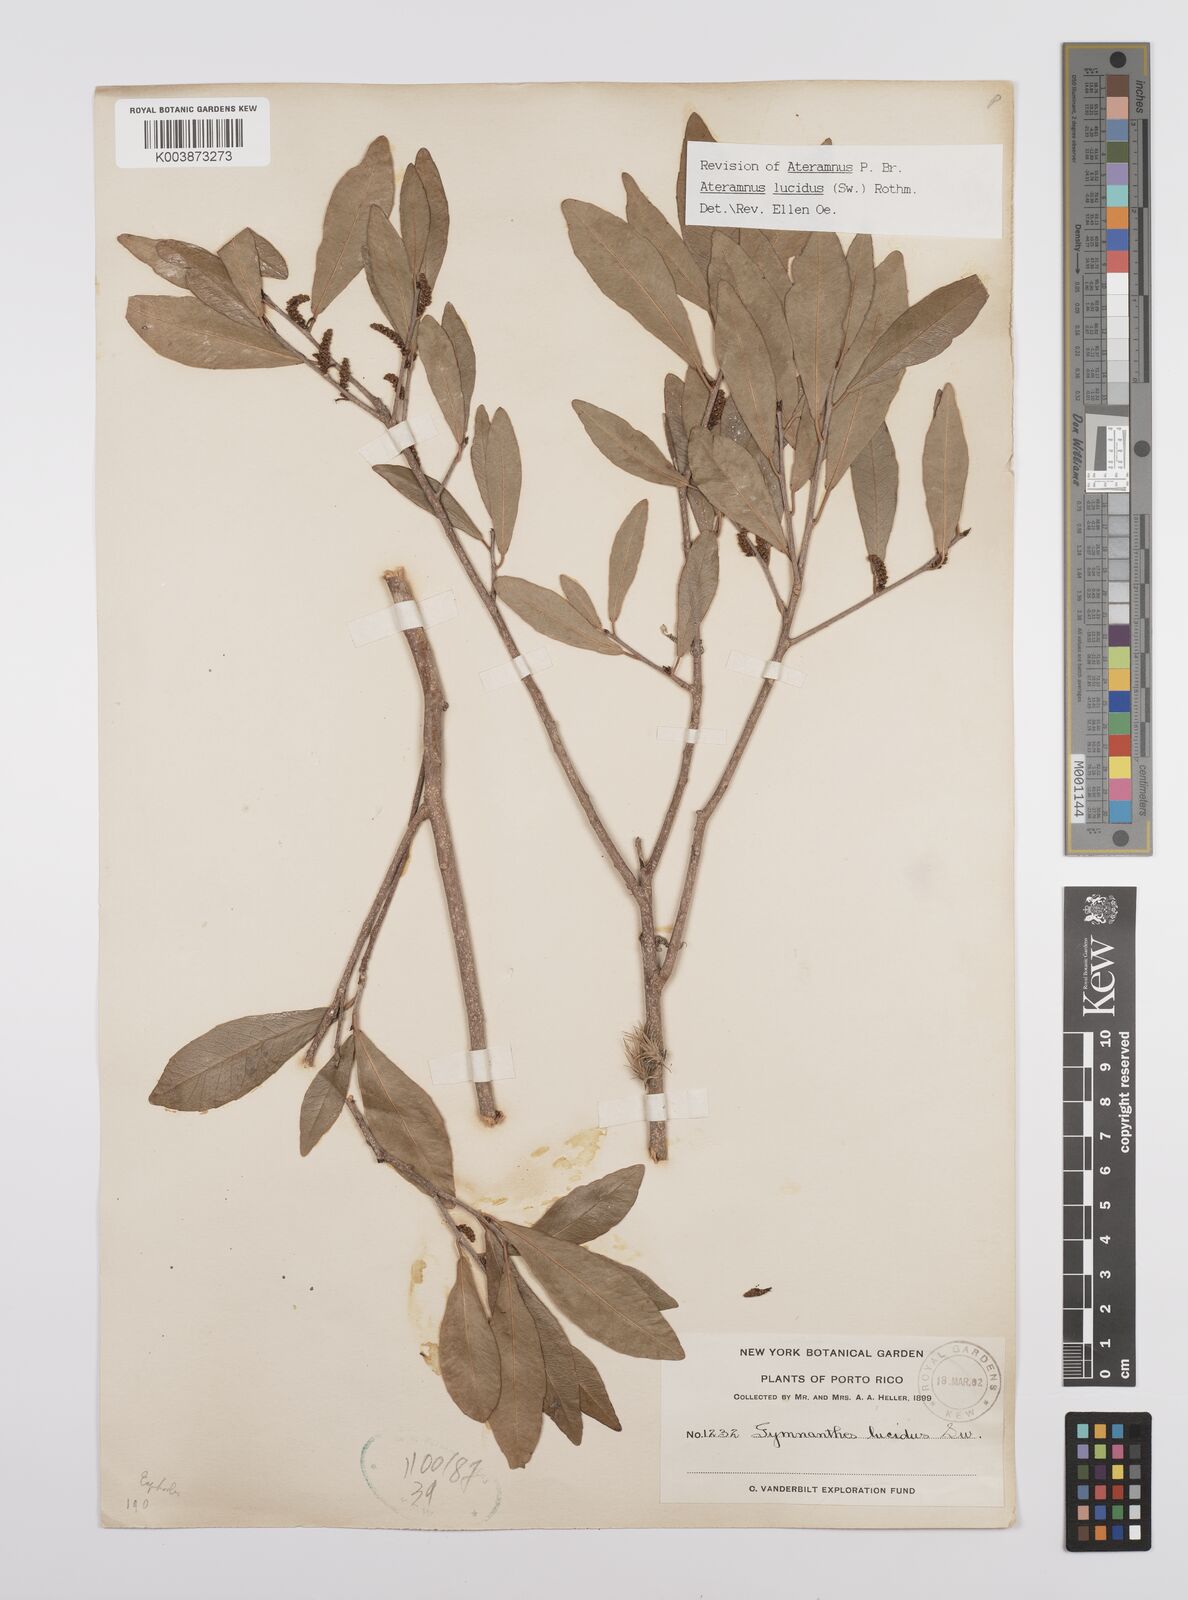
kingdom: Plantae
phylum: Tracheophyta
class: Magnoliopsida
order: Malpighiales
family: Euphorbiaceae
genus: Gymnanthes
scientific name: Gymnanthes lucida
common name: Oysterwood
